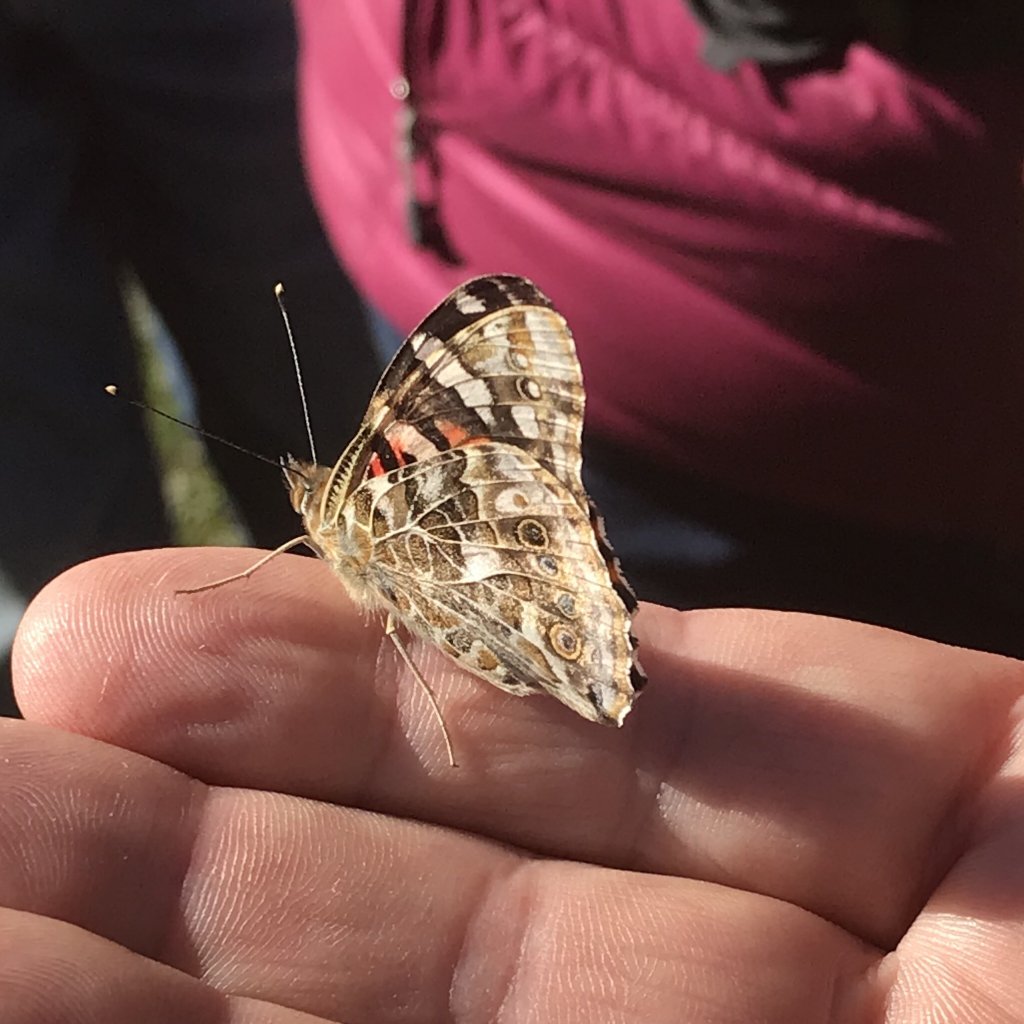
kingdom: Animalia
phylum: Arthropoda
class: Insecta
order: Lepidoptera
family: Nymphalidae
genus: Vanessa
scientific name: Vanessa cardui
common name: Painted Lady
